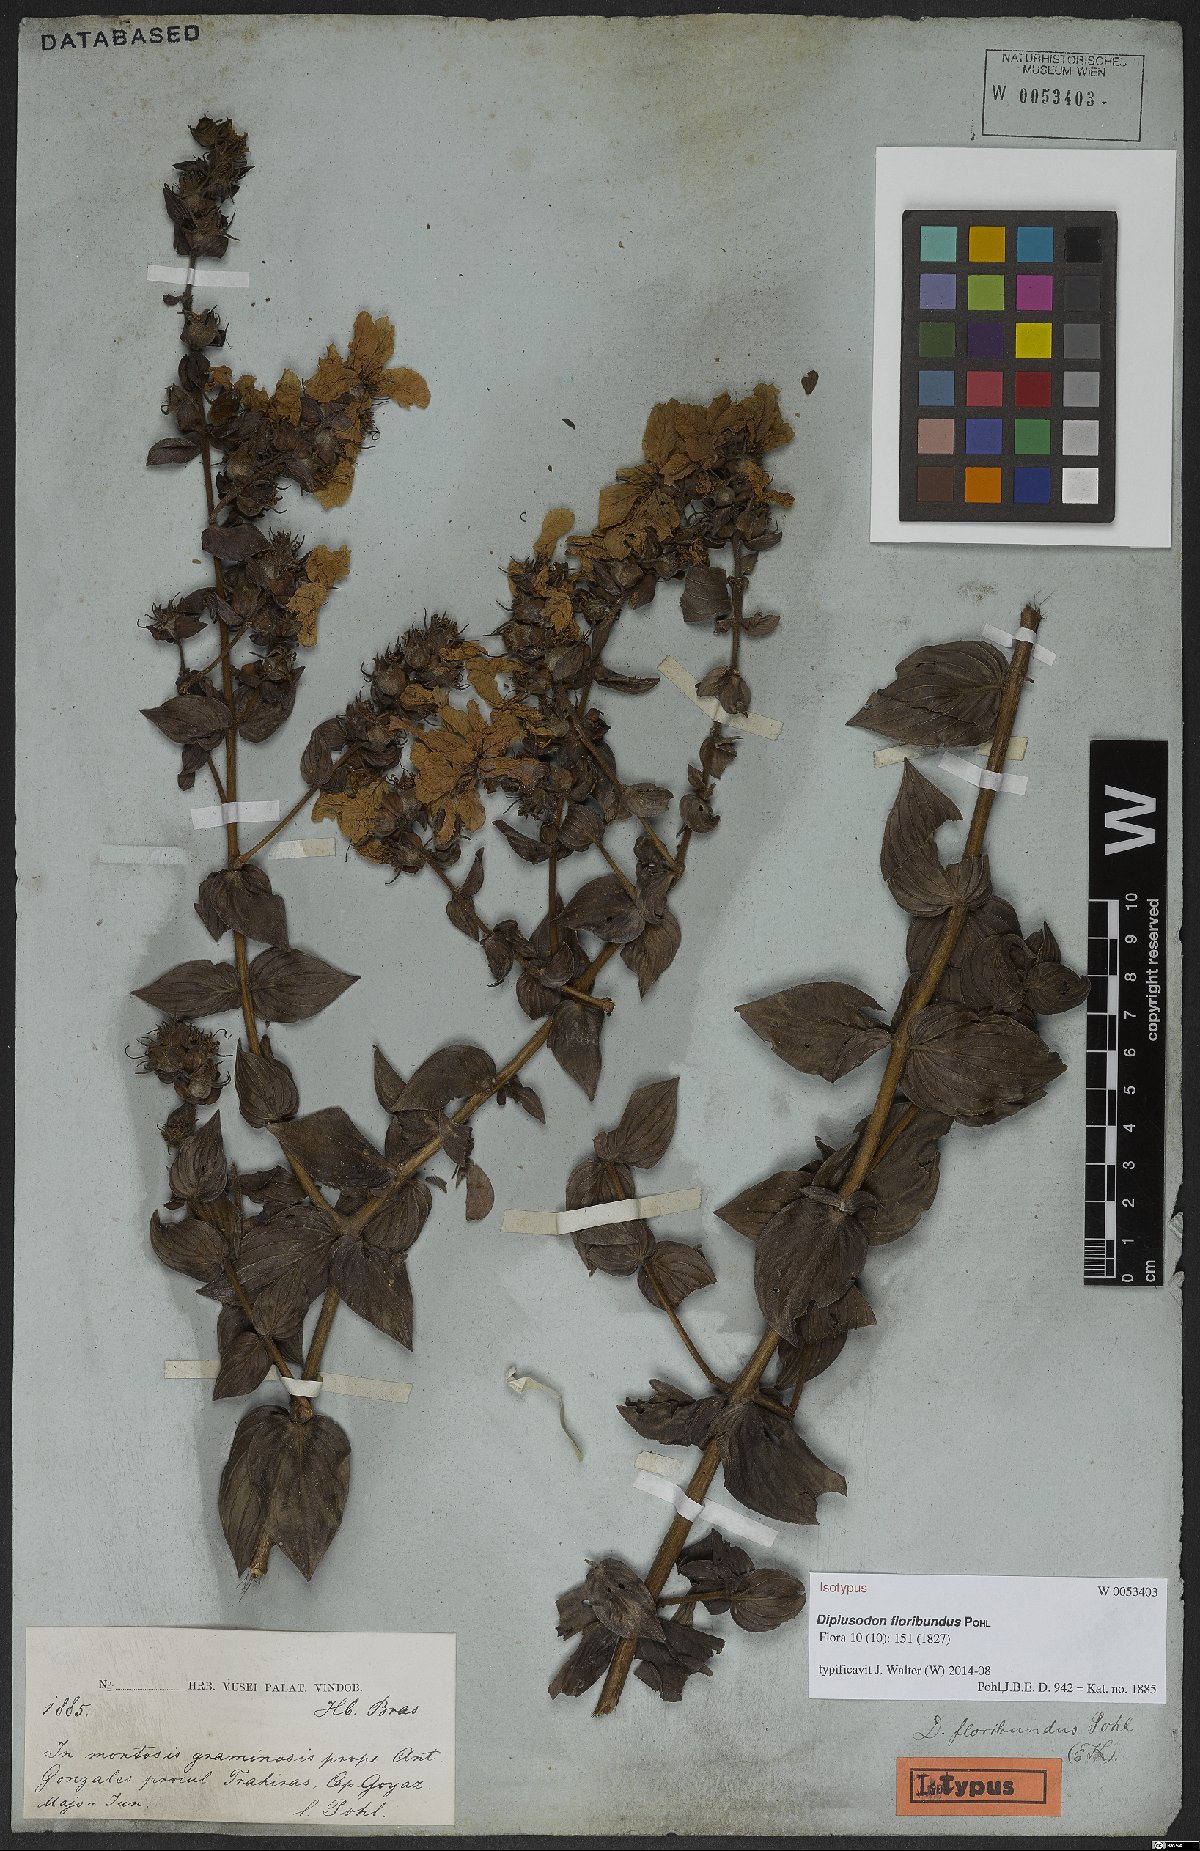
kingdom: Plantae
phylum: Tracheophyta
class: Magnoliopsida
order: Myrtales
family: Lythraceae
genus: Diplusodon
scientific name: Diplusodon floribundus
